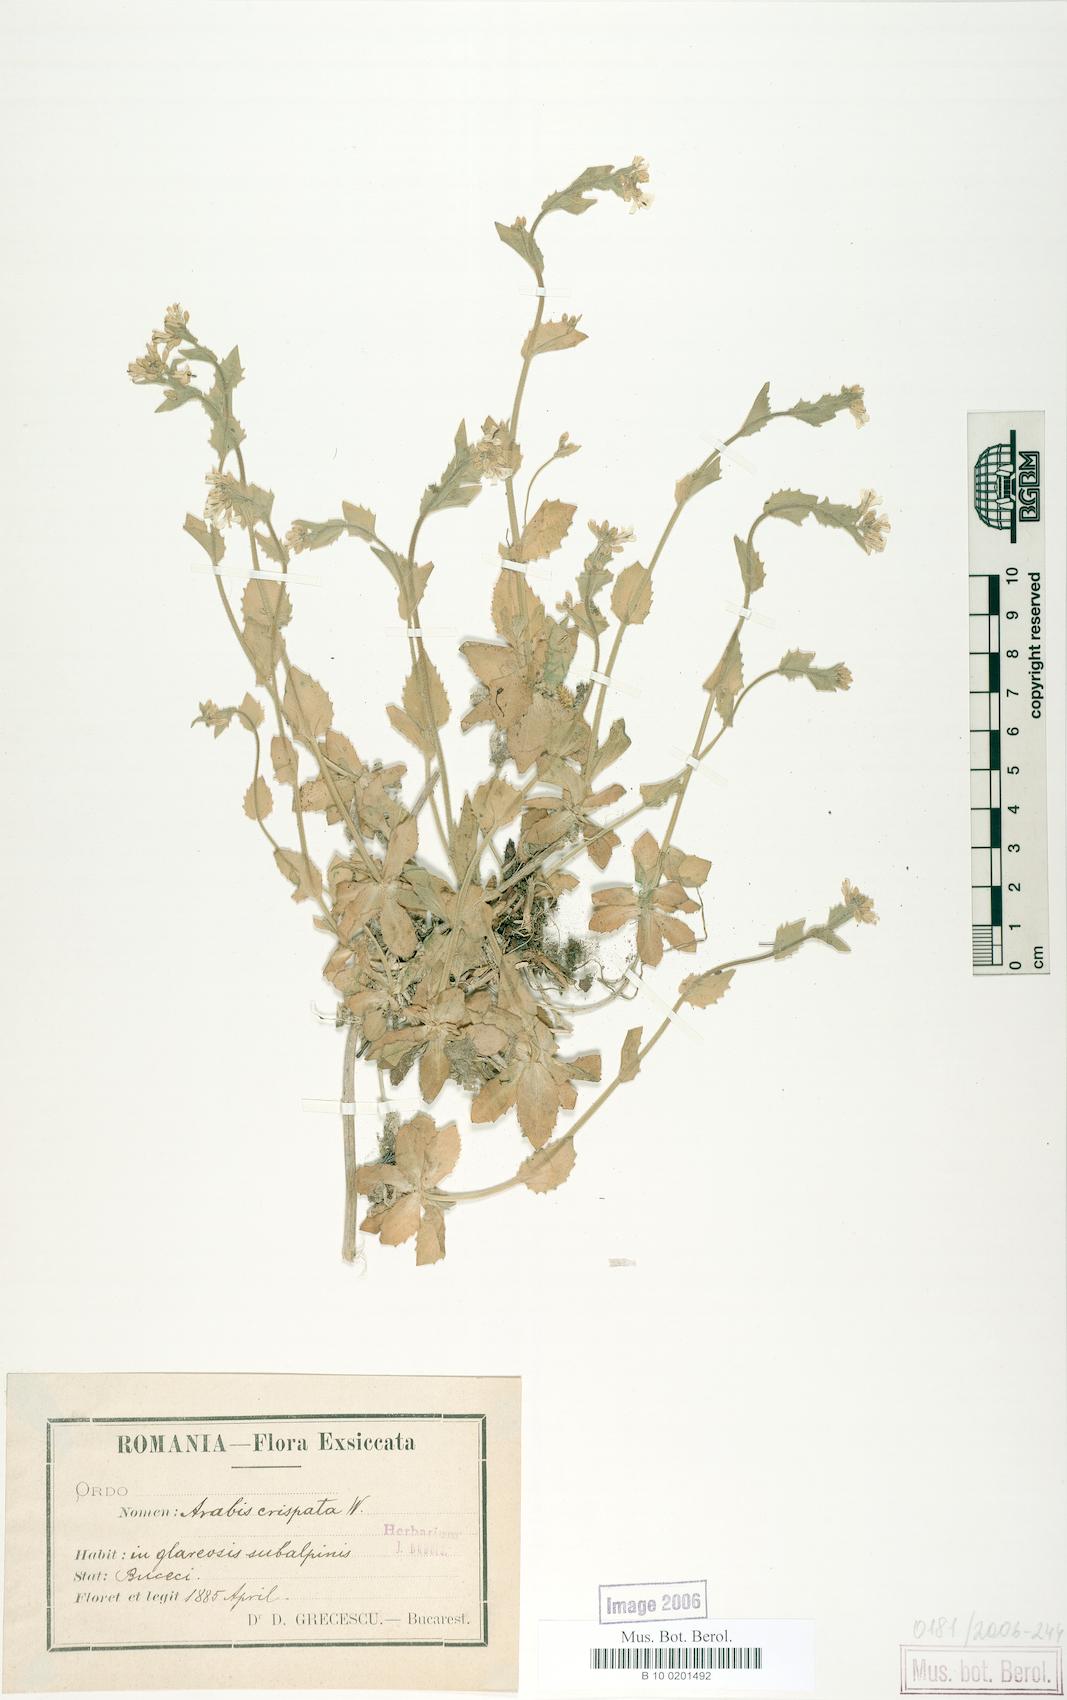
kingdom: Plantae
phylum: Tracheophyta
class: Magnoliopsida
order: Brassicales
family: Brassicaceae
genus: Arabis
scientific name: Arabis alpina
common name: Alpine rock-cress
